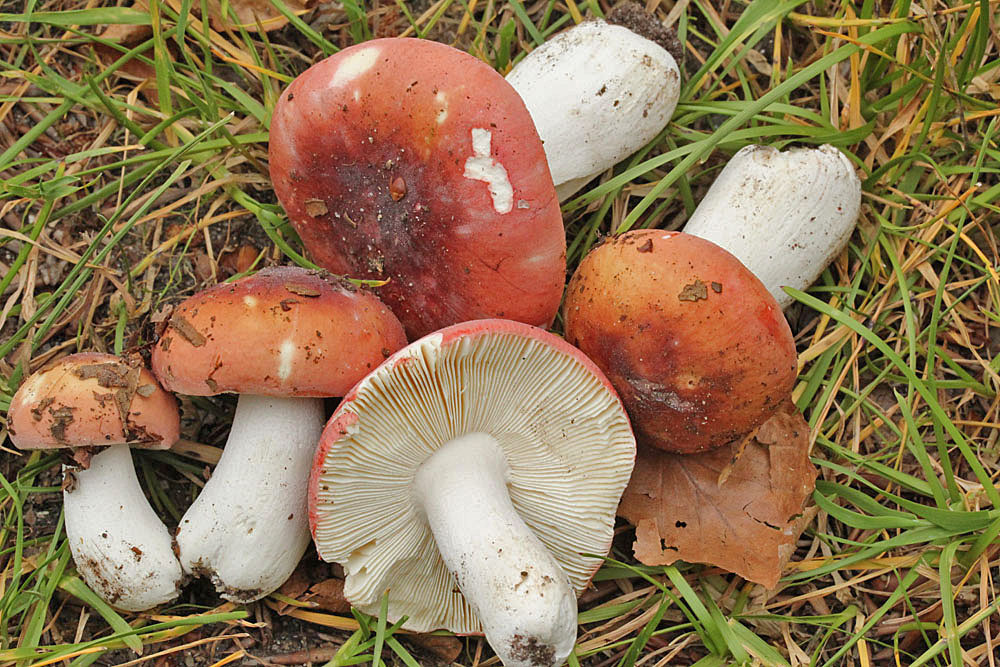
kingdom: Fungi
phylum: Basidiomycota
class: Agaricomycetes
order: Russulales
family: Russulaceae
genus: Russula
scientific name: Russula aurora
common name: rosa skørhat
